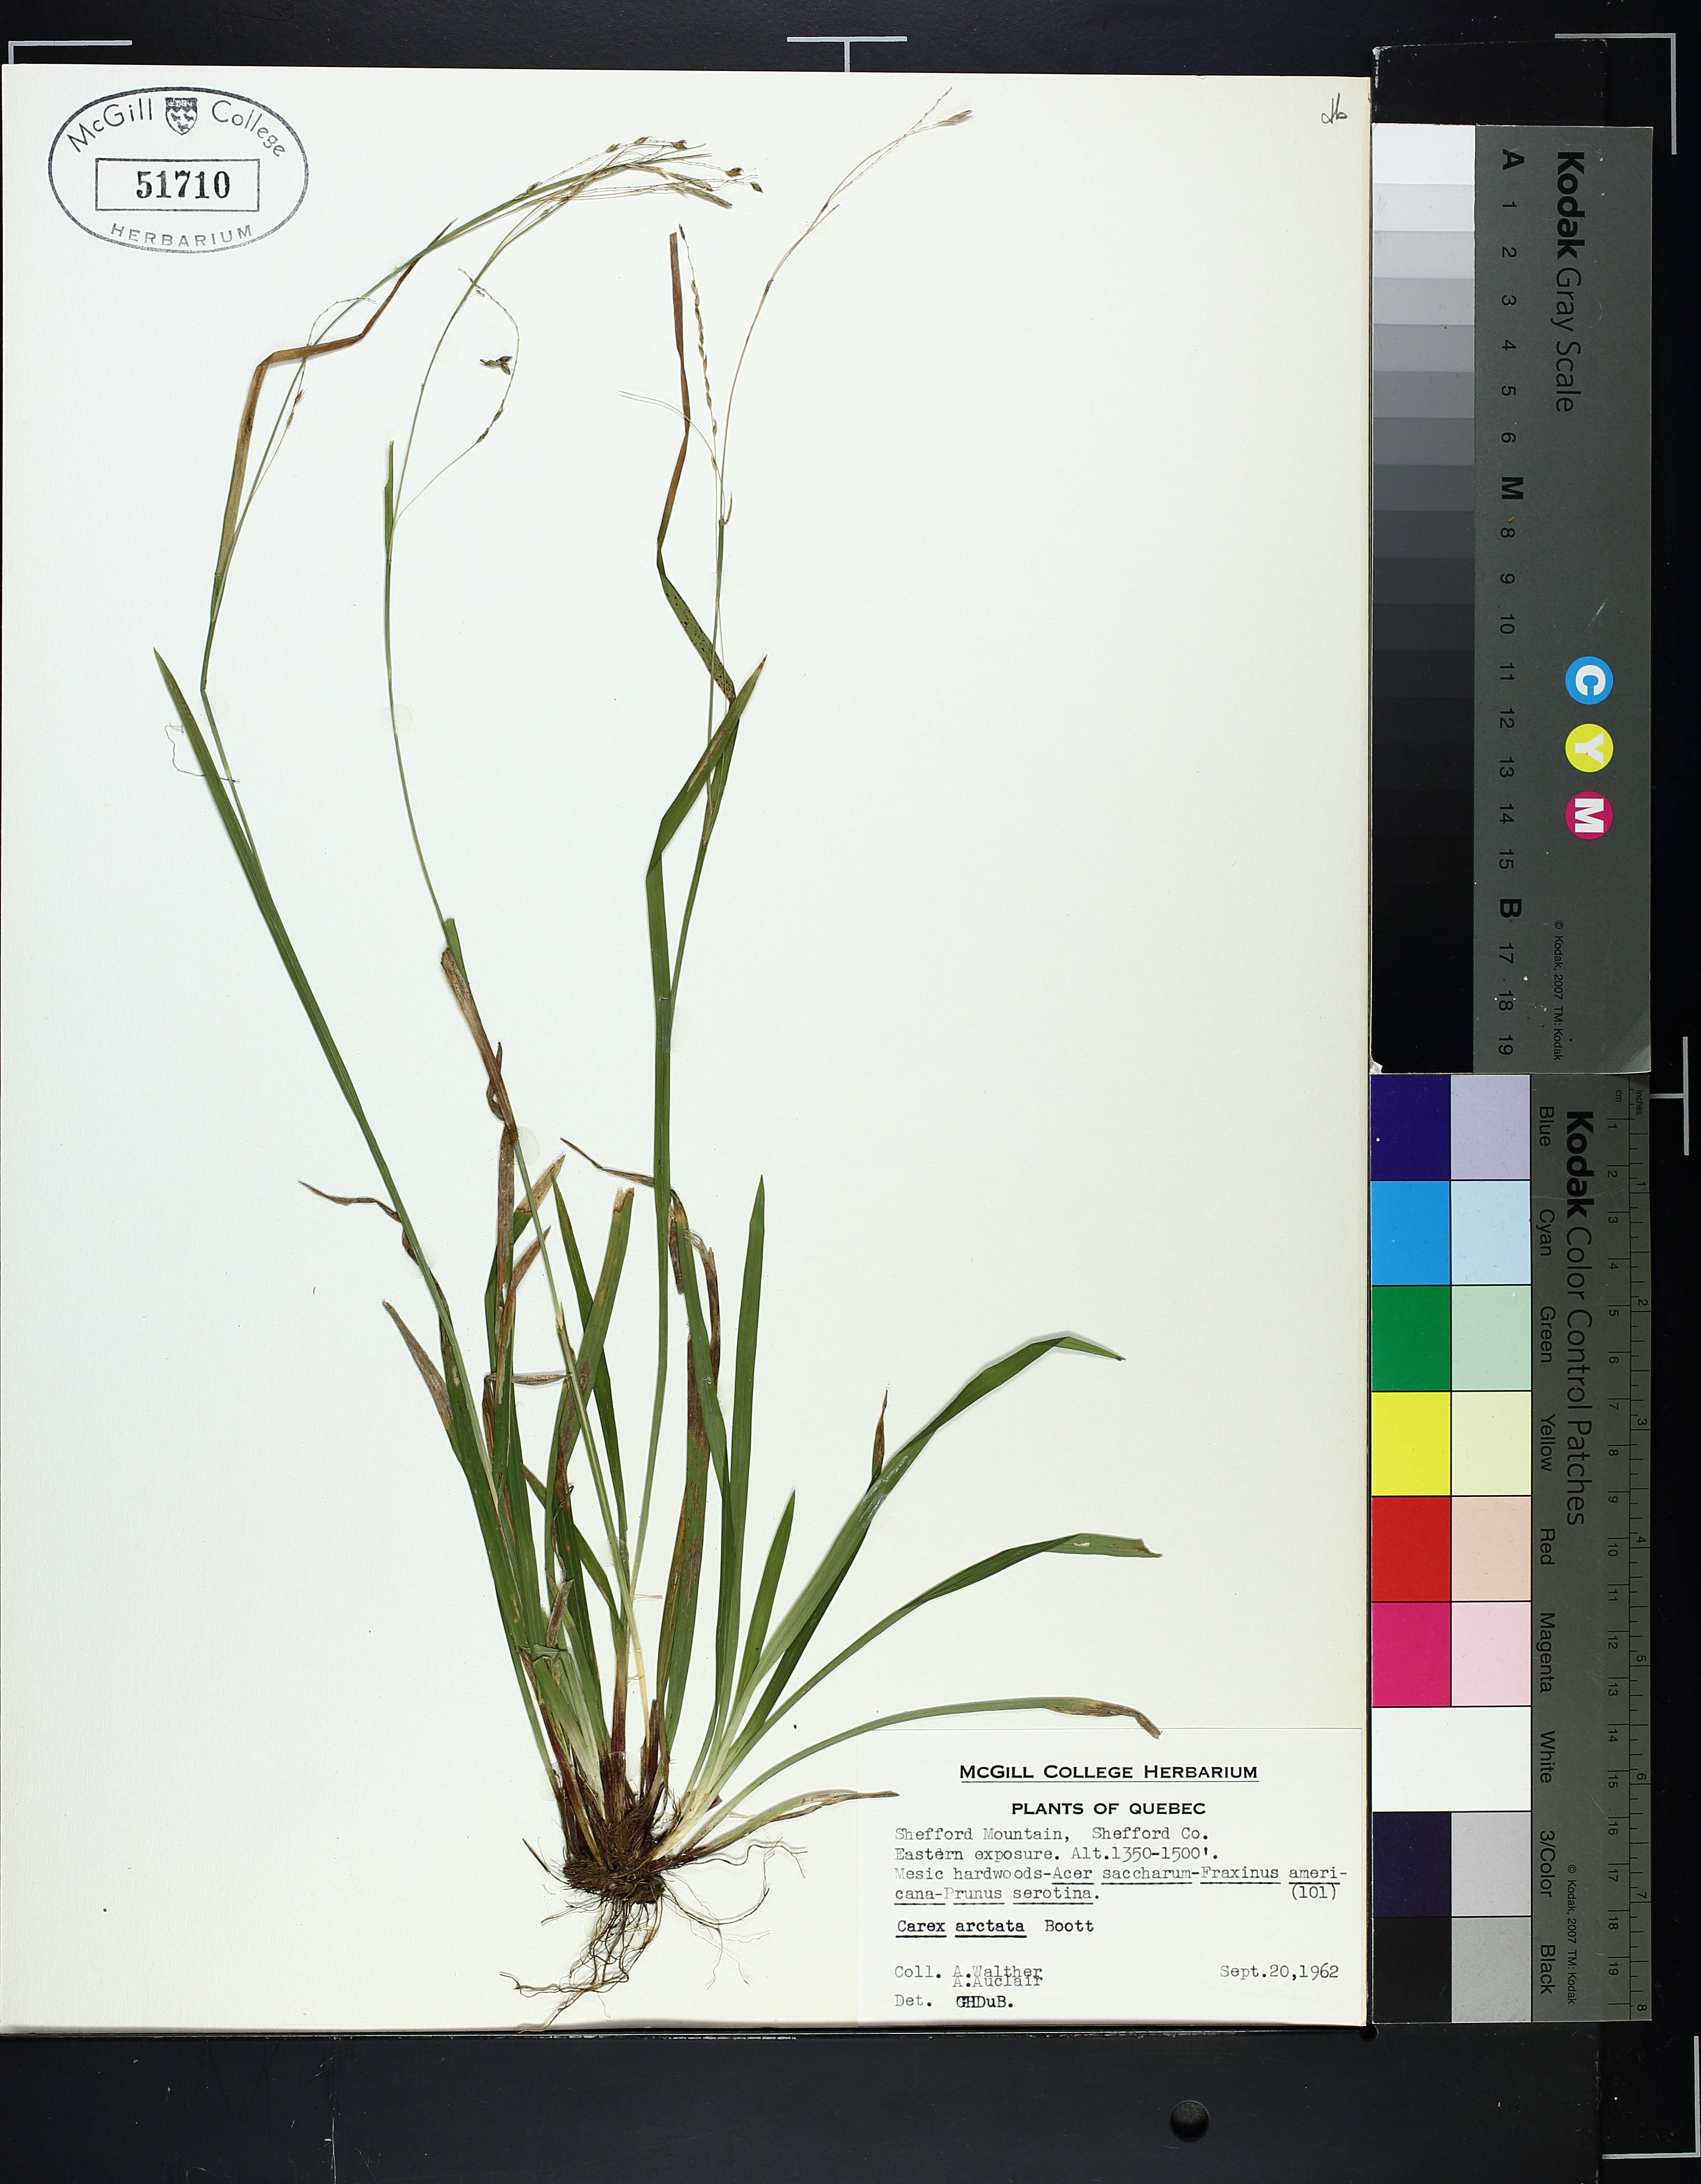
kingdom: Plantae
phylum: Tracheophyta
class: Liliopsida
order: Poales
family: Cyperaceae
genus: Carex
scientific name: Carex arctata
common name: Black sedge
